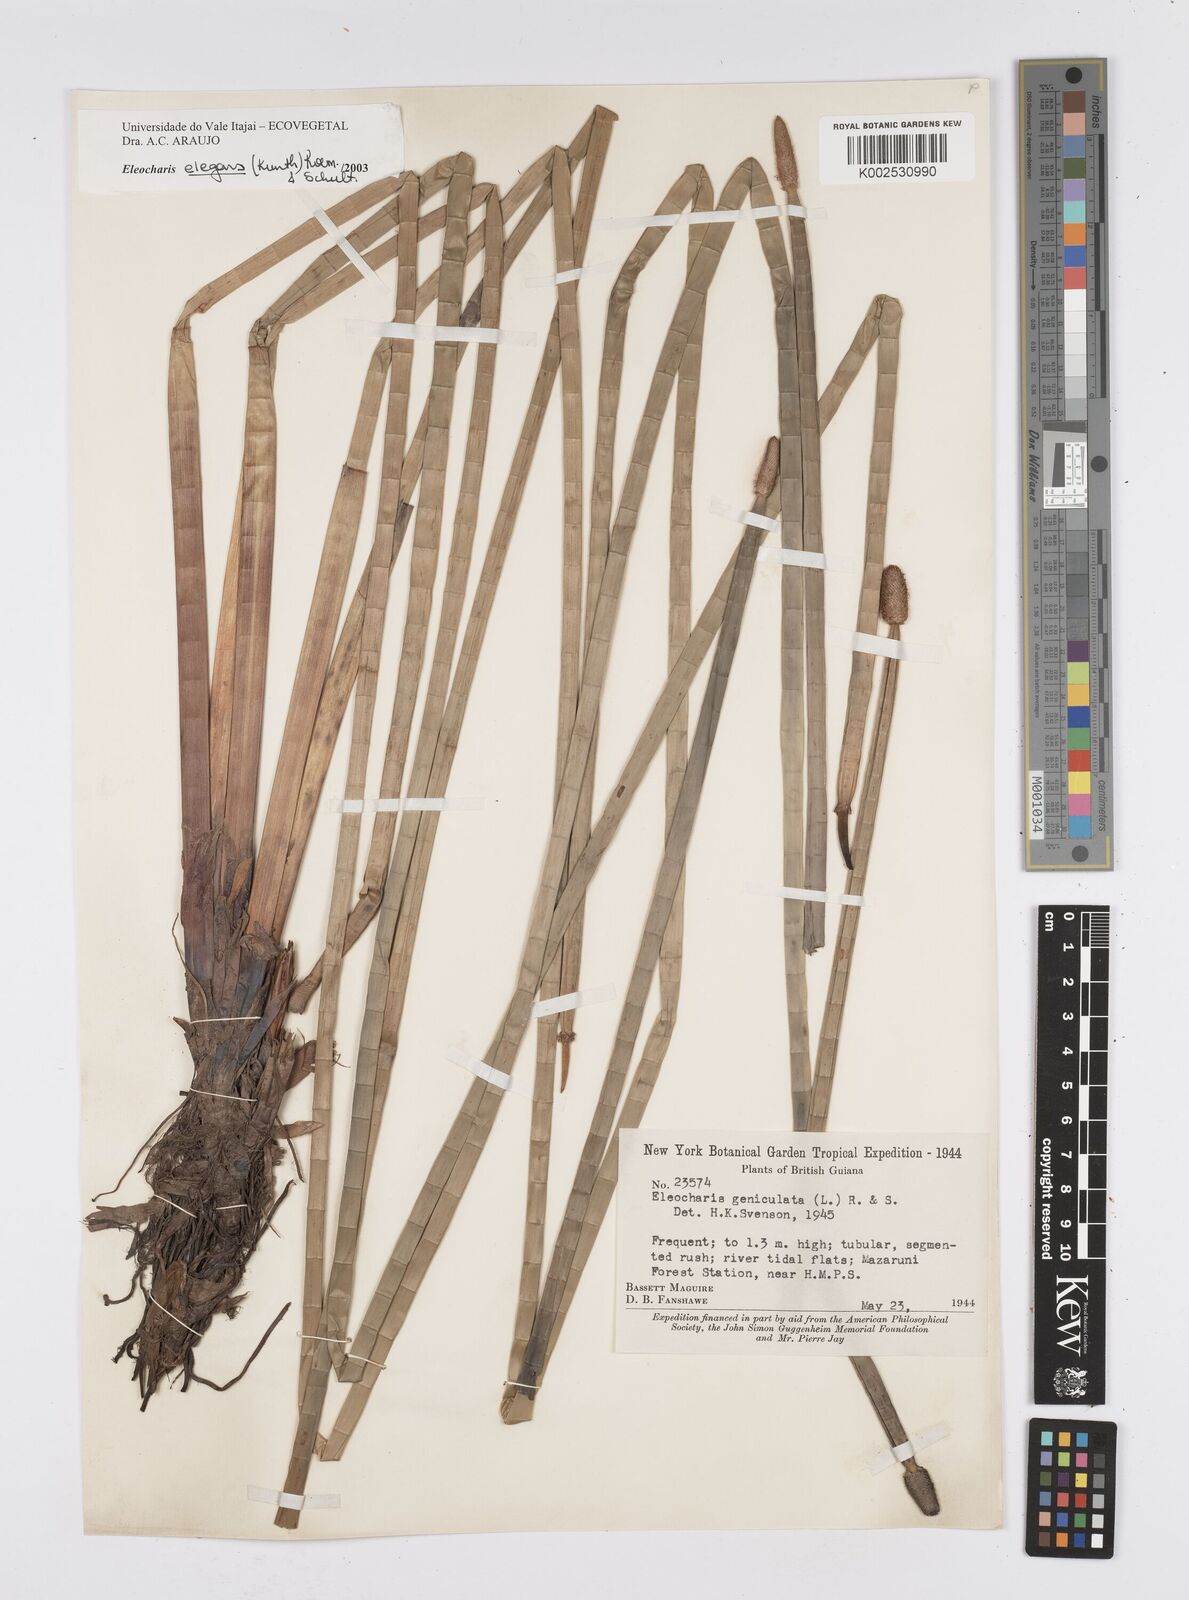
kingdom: Plantae
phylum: Tracheophyta
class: Liliopsida
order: Poales
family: Cyperaceae
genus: Eleocharis
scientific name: Eleocharis elegans
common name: Elegant spike-rush
